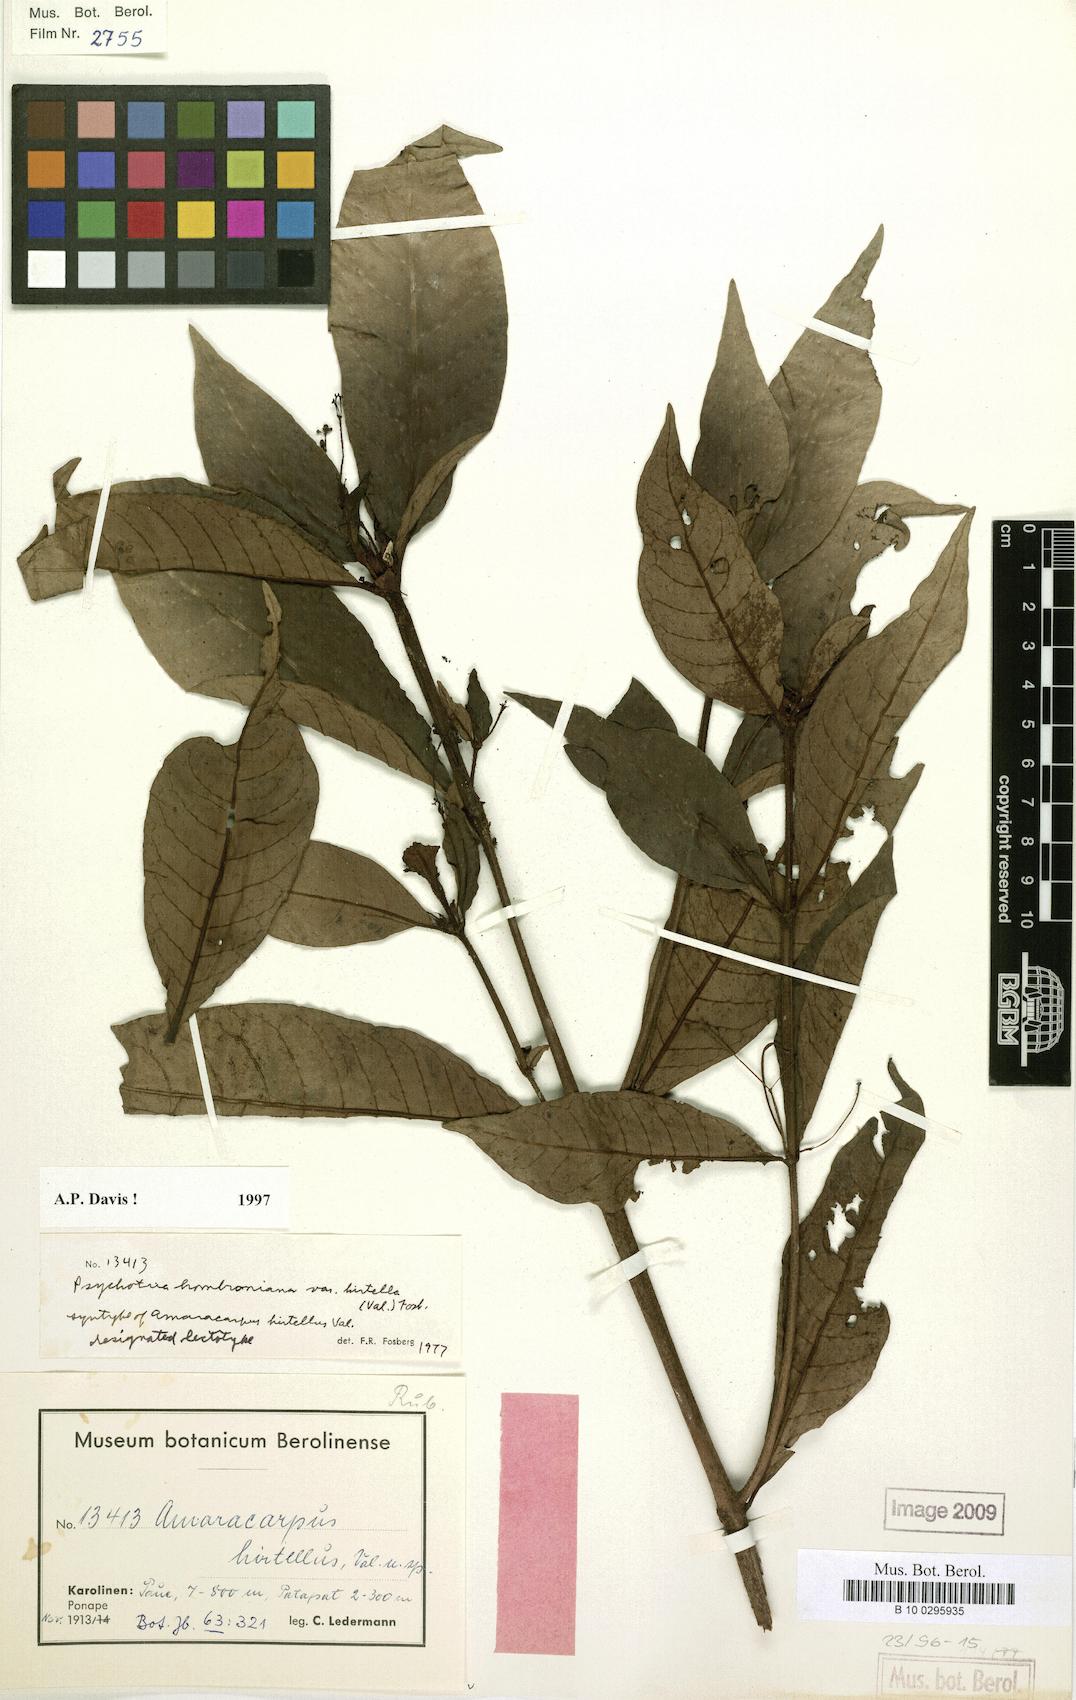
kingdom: Plantae
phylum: Tracheophyta
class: Magnoliopsida
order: Gentianales
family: Rubiaceae
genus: Psychotria
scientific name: Psychotria hombroniana
